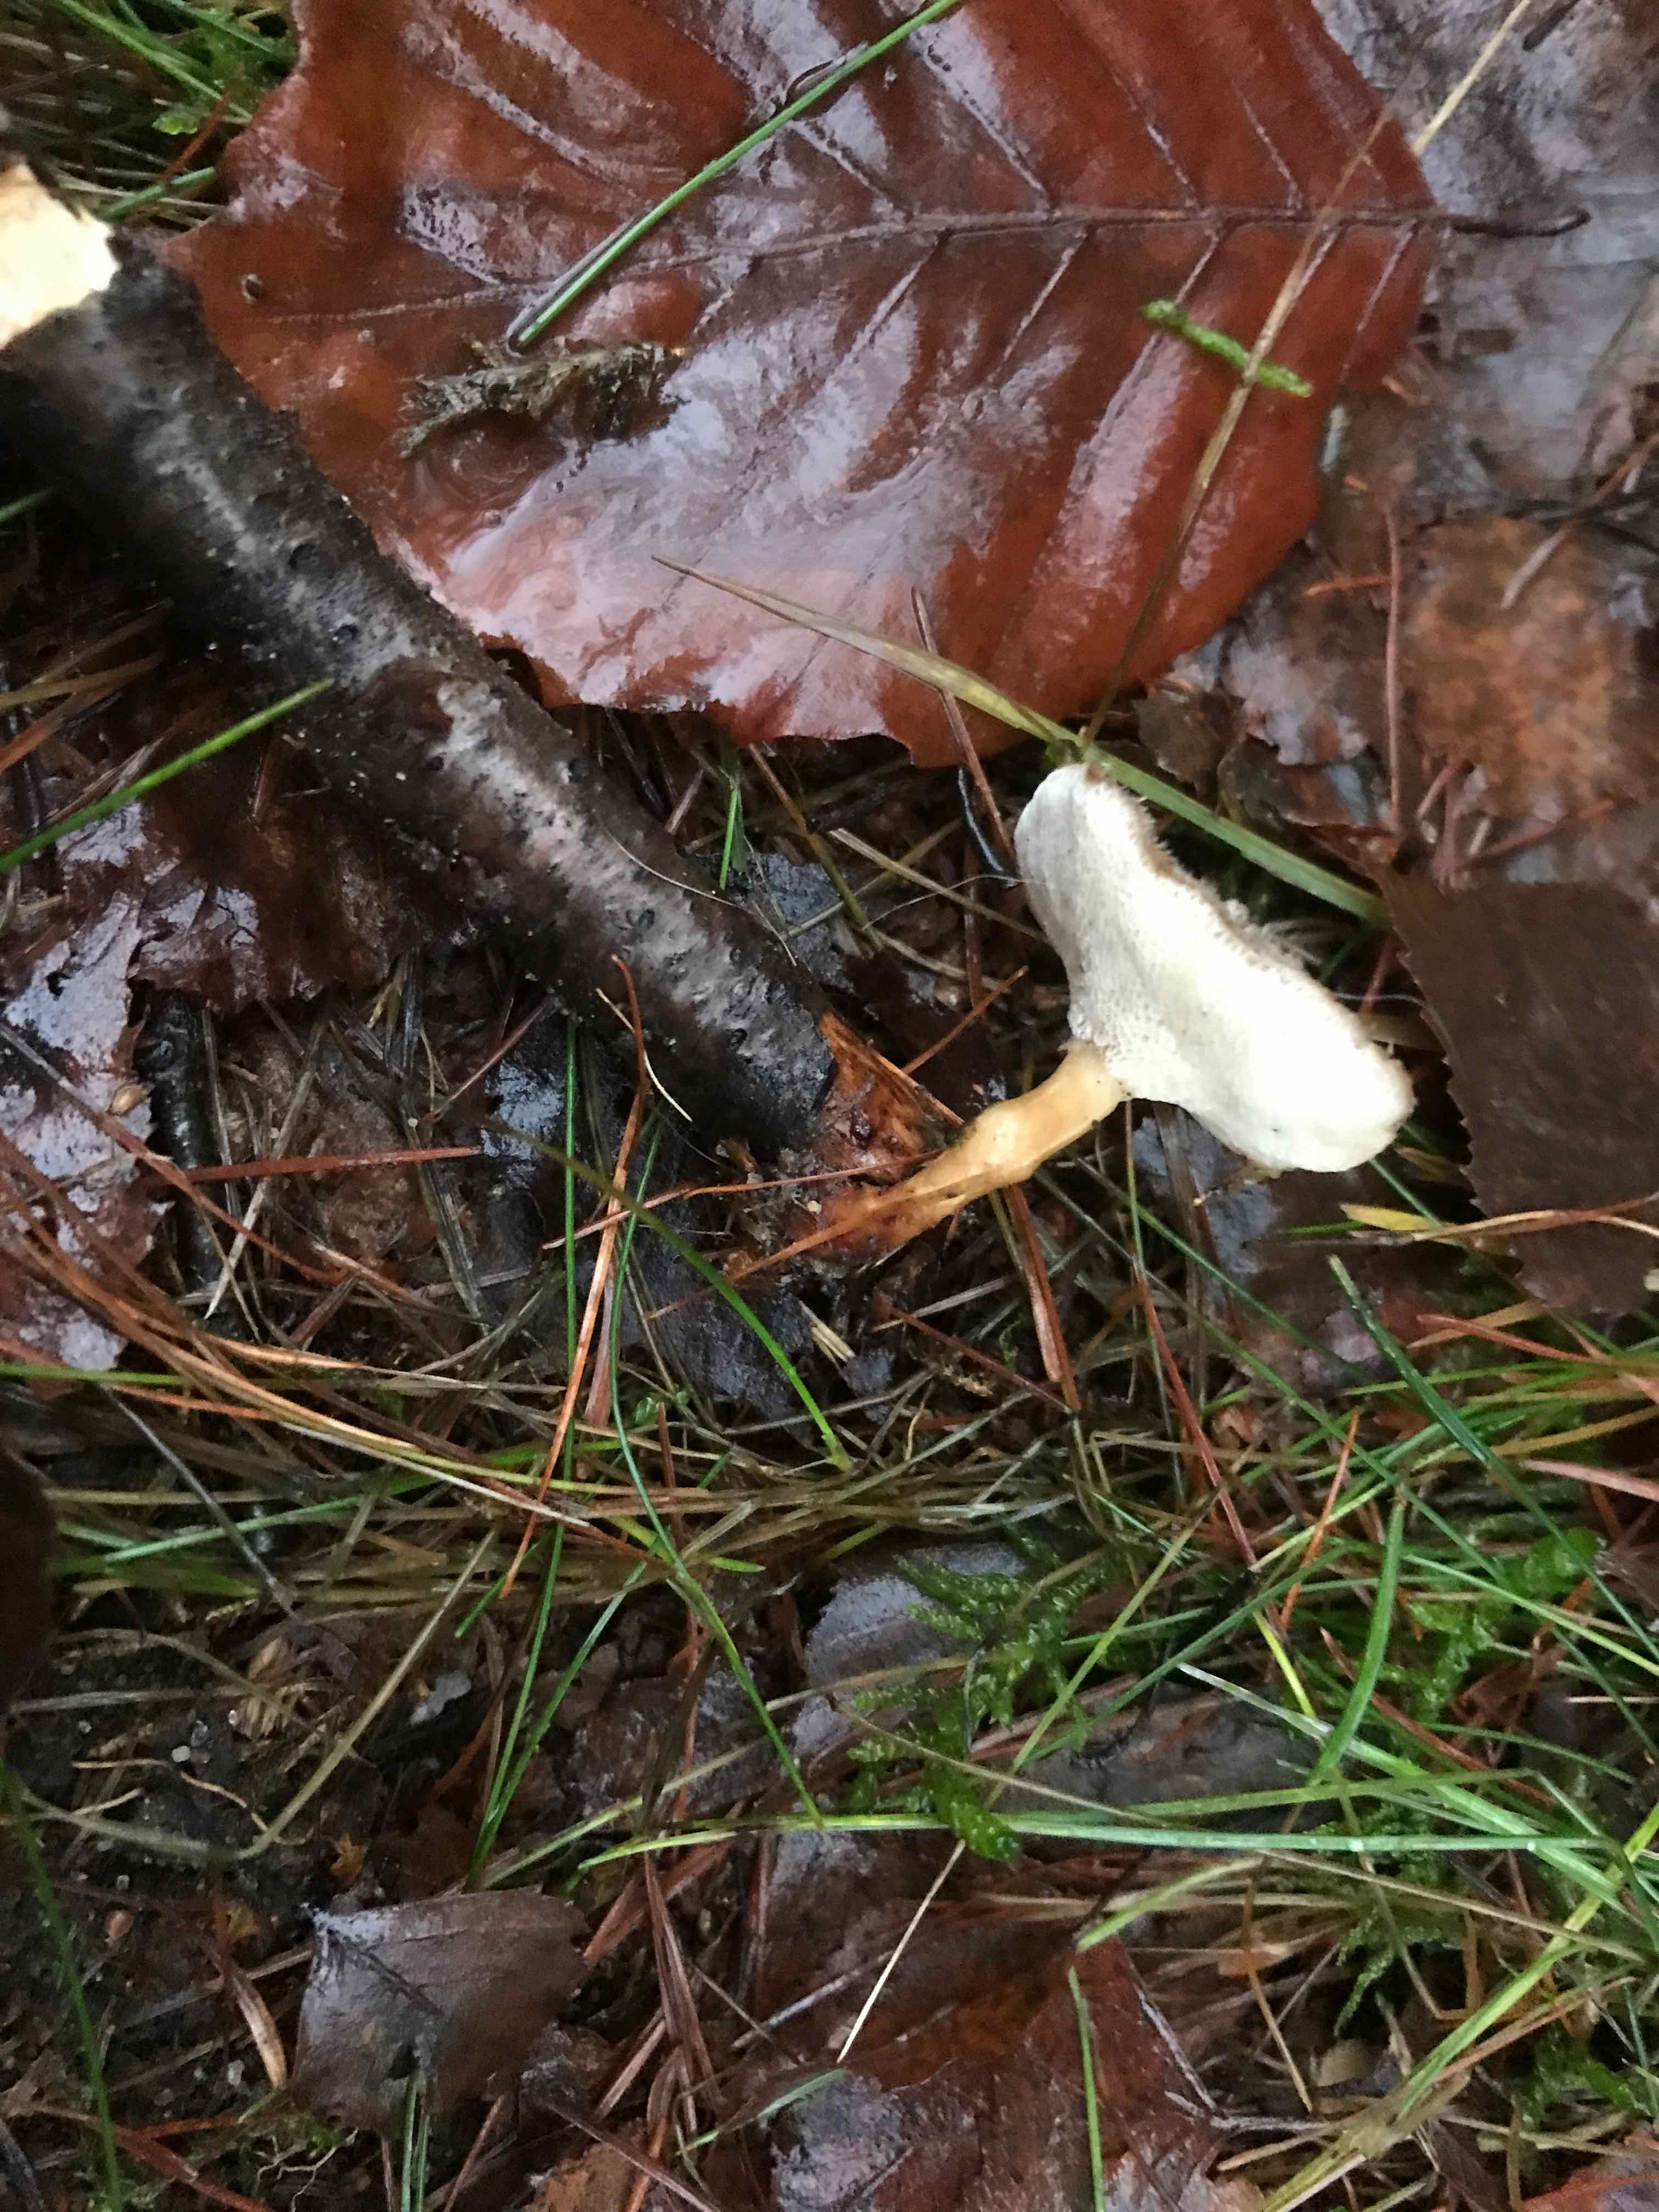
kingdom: Fungi
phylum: Basidiomycota
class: Agaricomycetes
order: Polyporales
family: Polyporaceae
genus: Lentinus
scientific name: Lentinus brumalis
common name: vinter-stilkporesvamp
